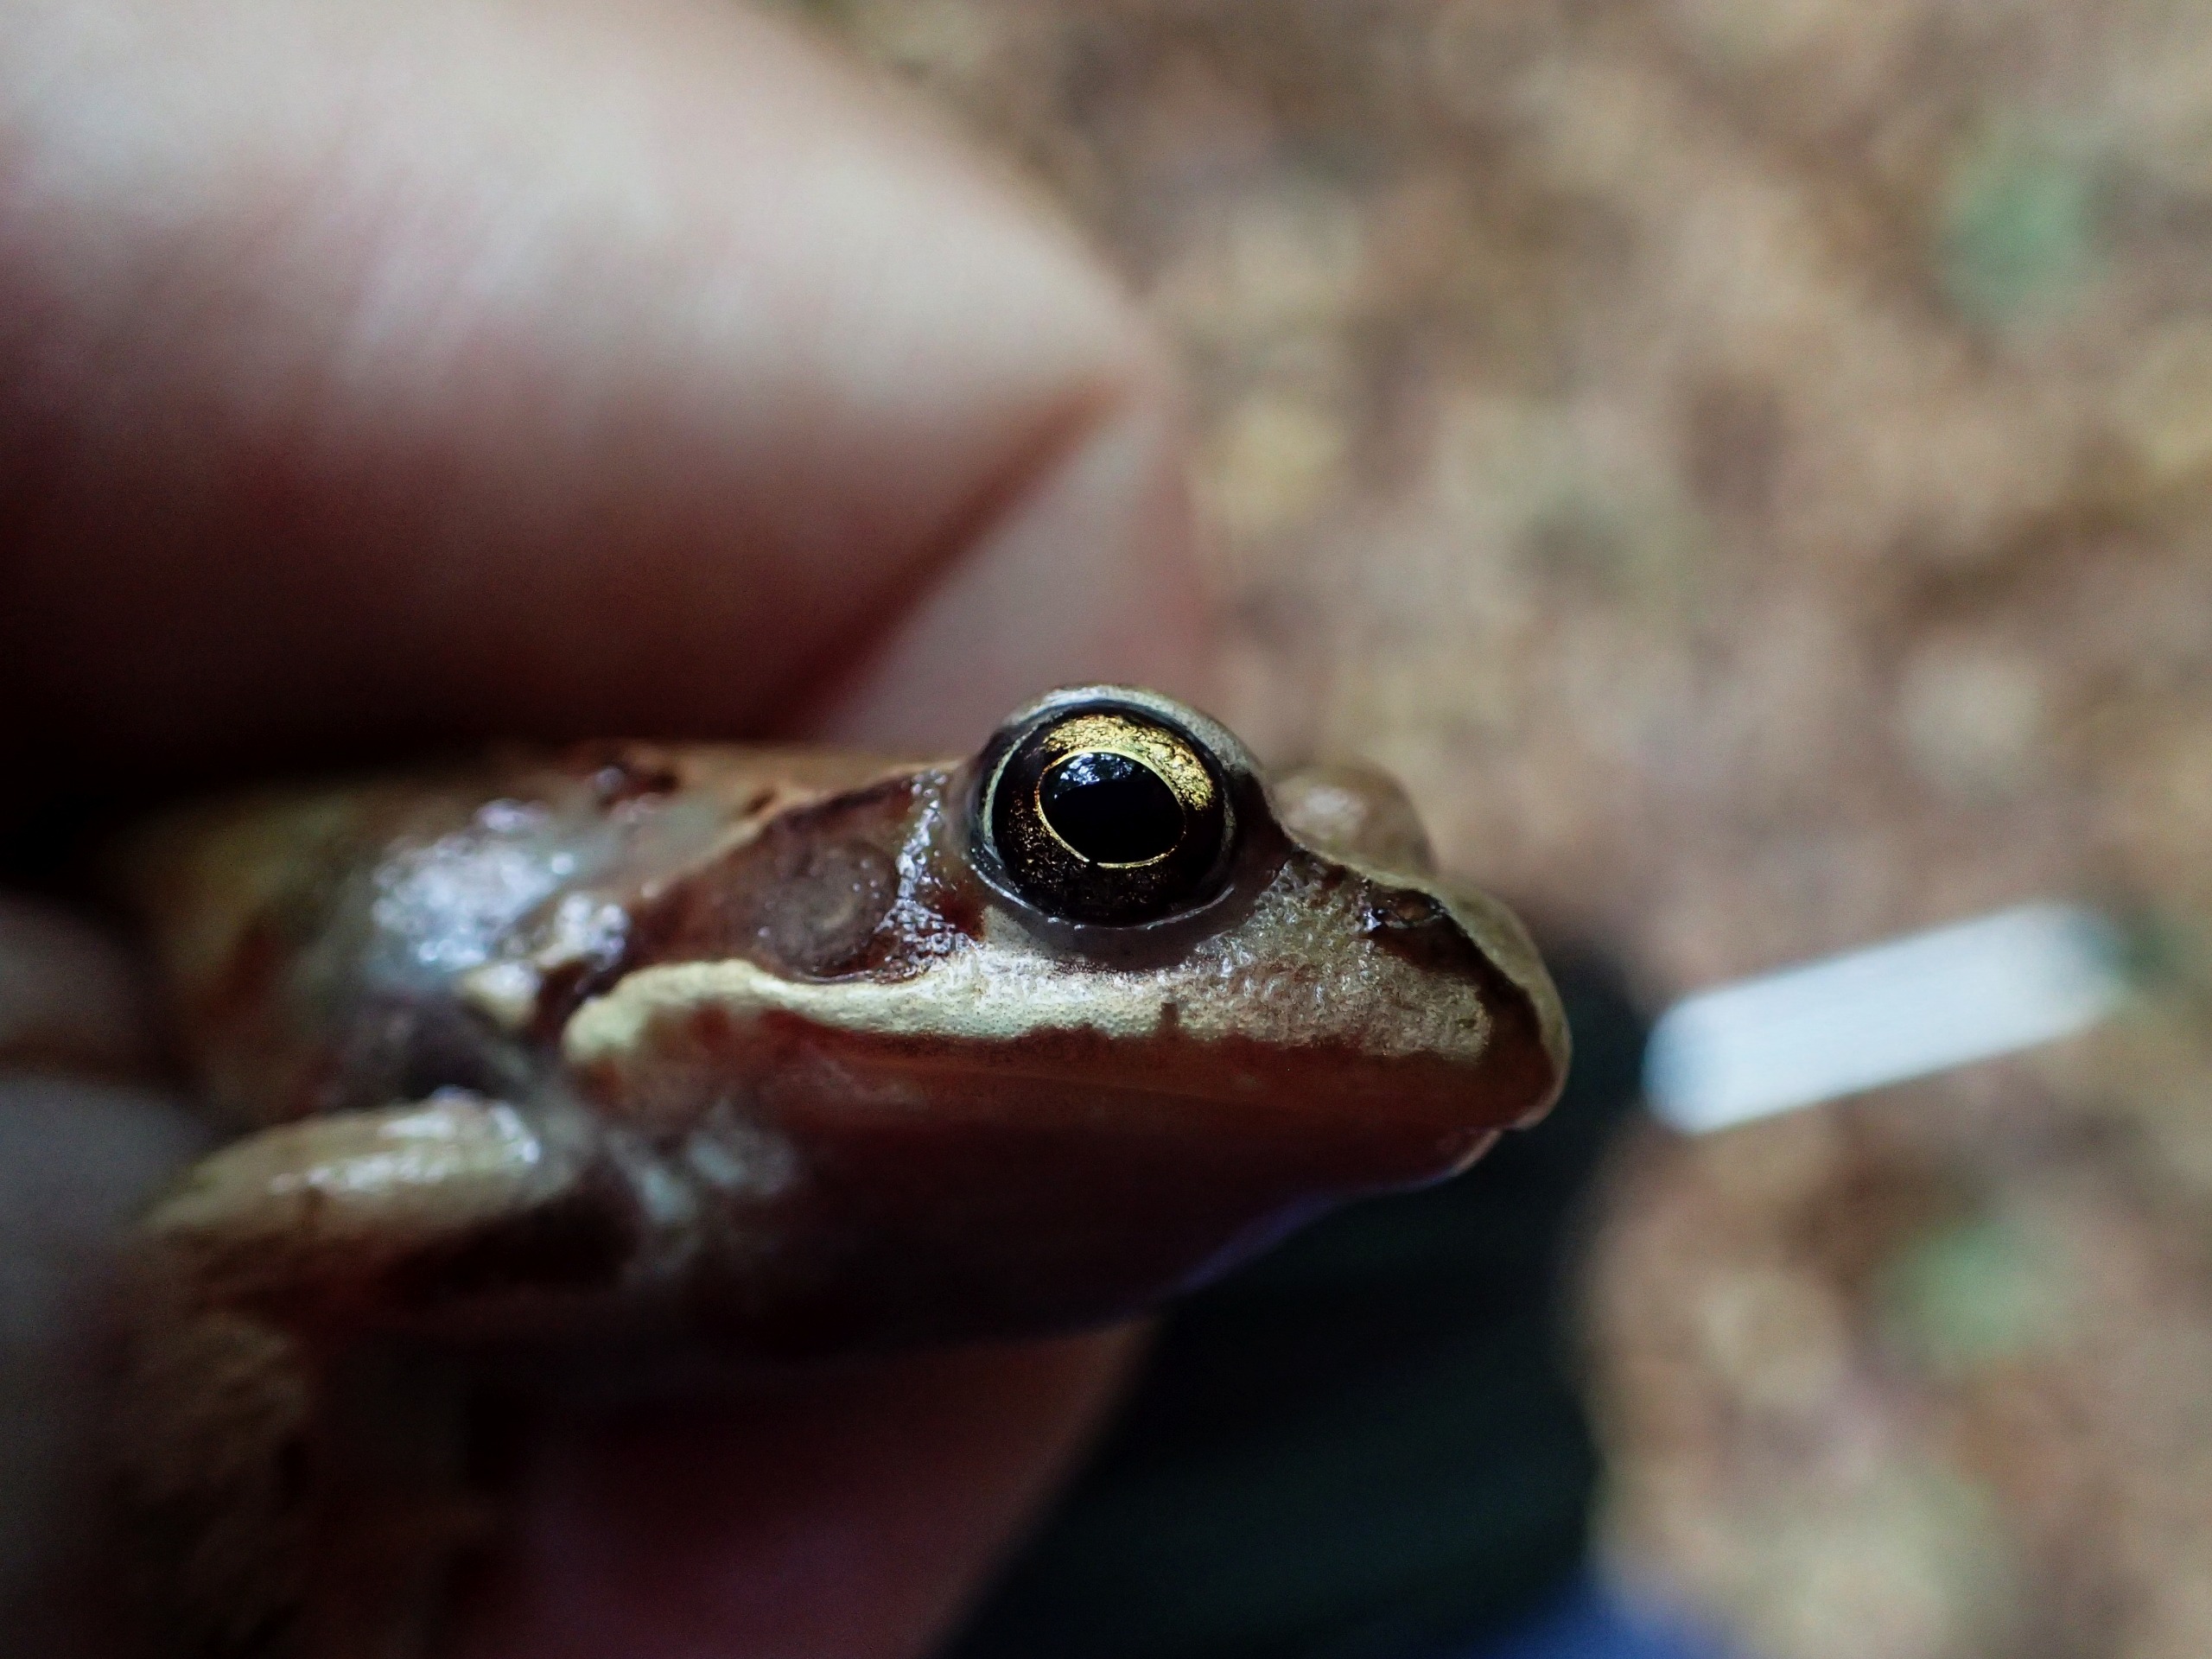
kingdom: Animalia
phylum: Chordata
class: Amphibia
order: Anura
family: Ranidae
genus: Rana
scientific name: Rana dalmatina
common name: Springfrø
